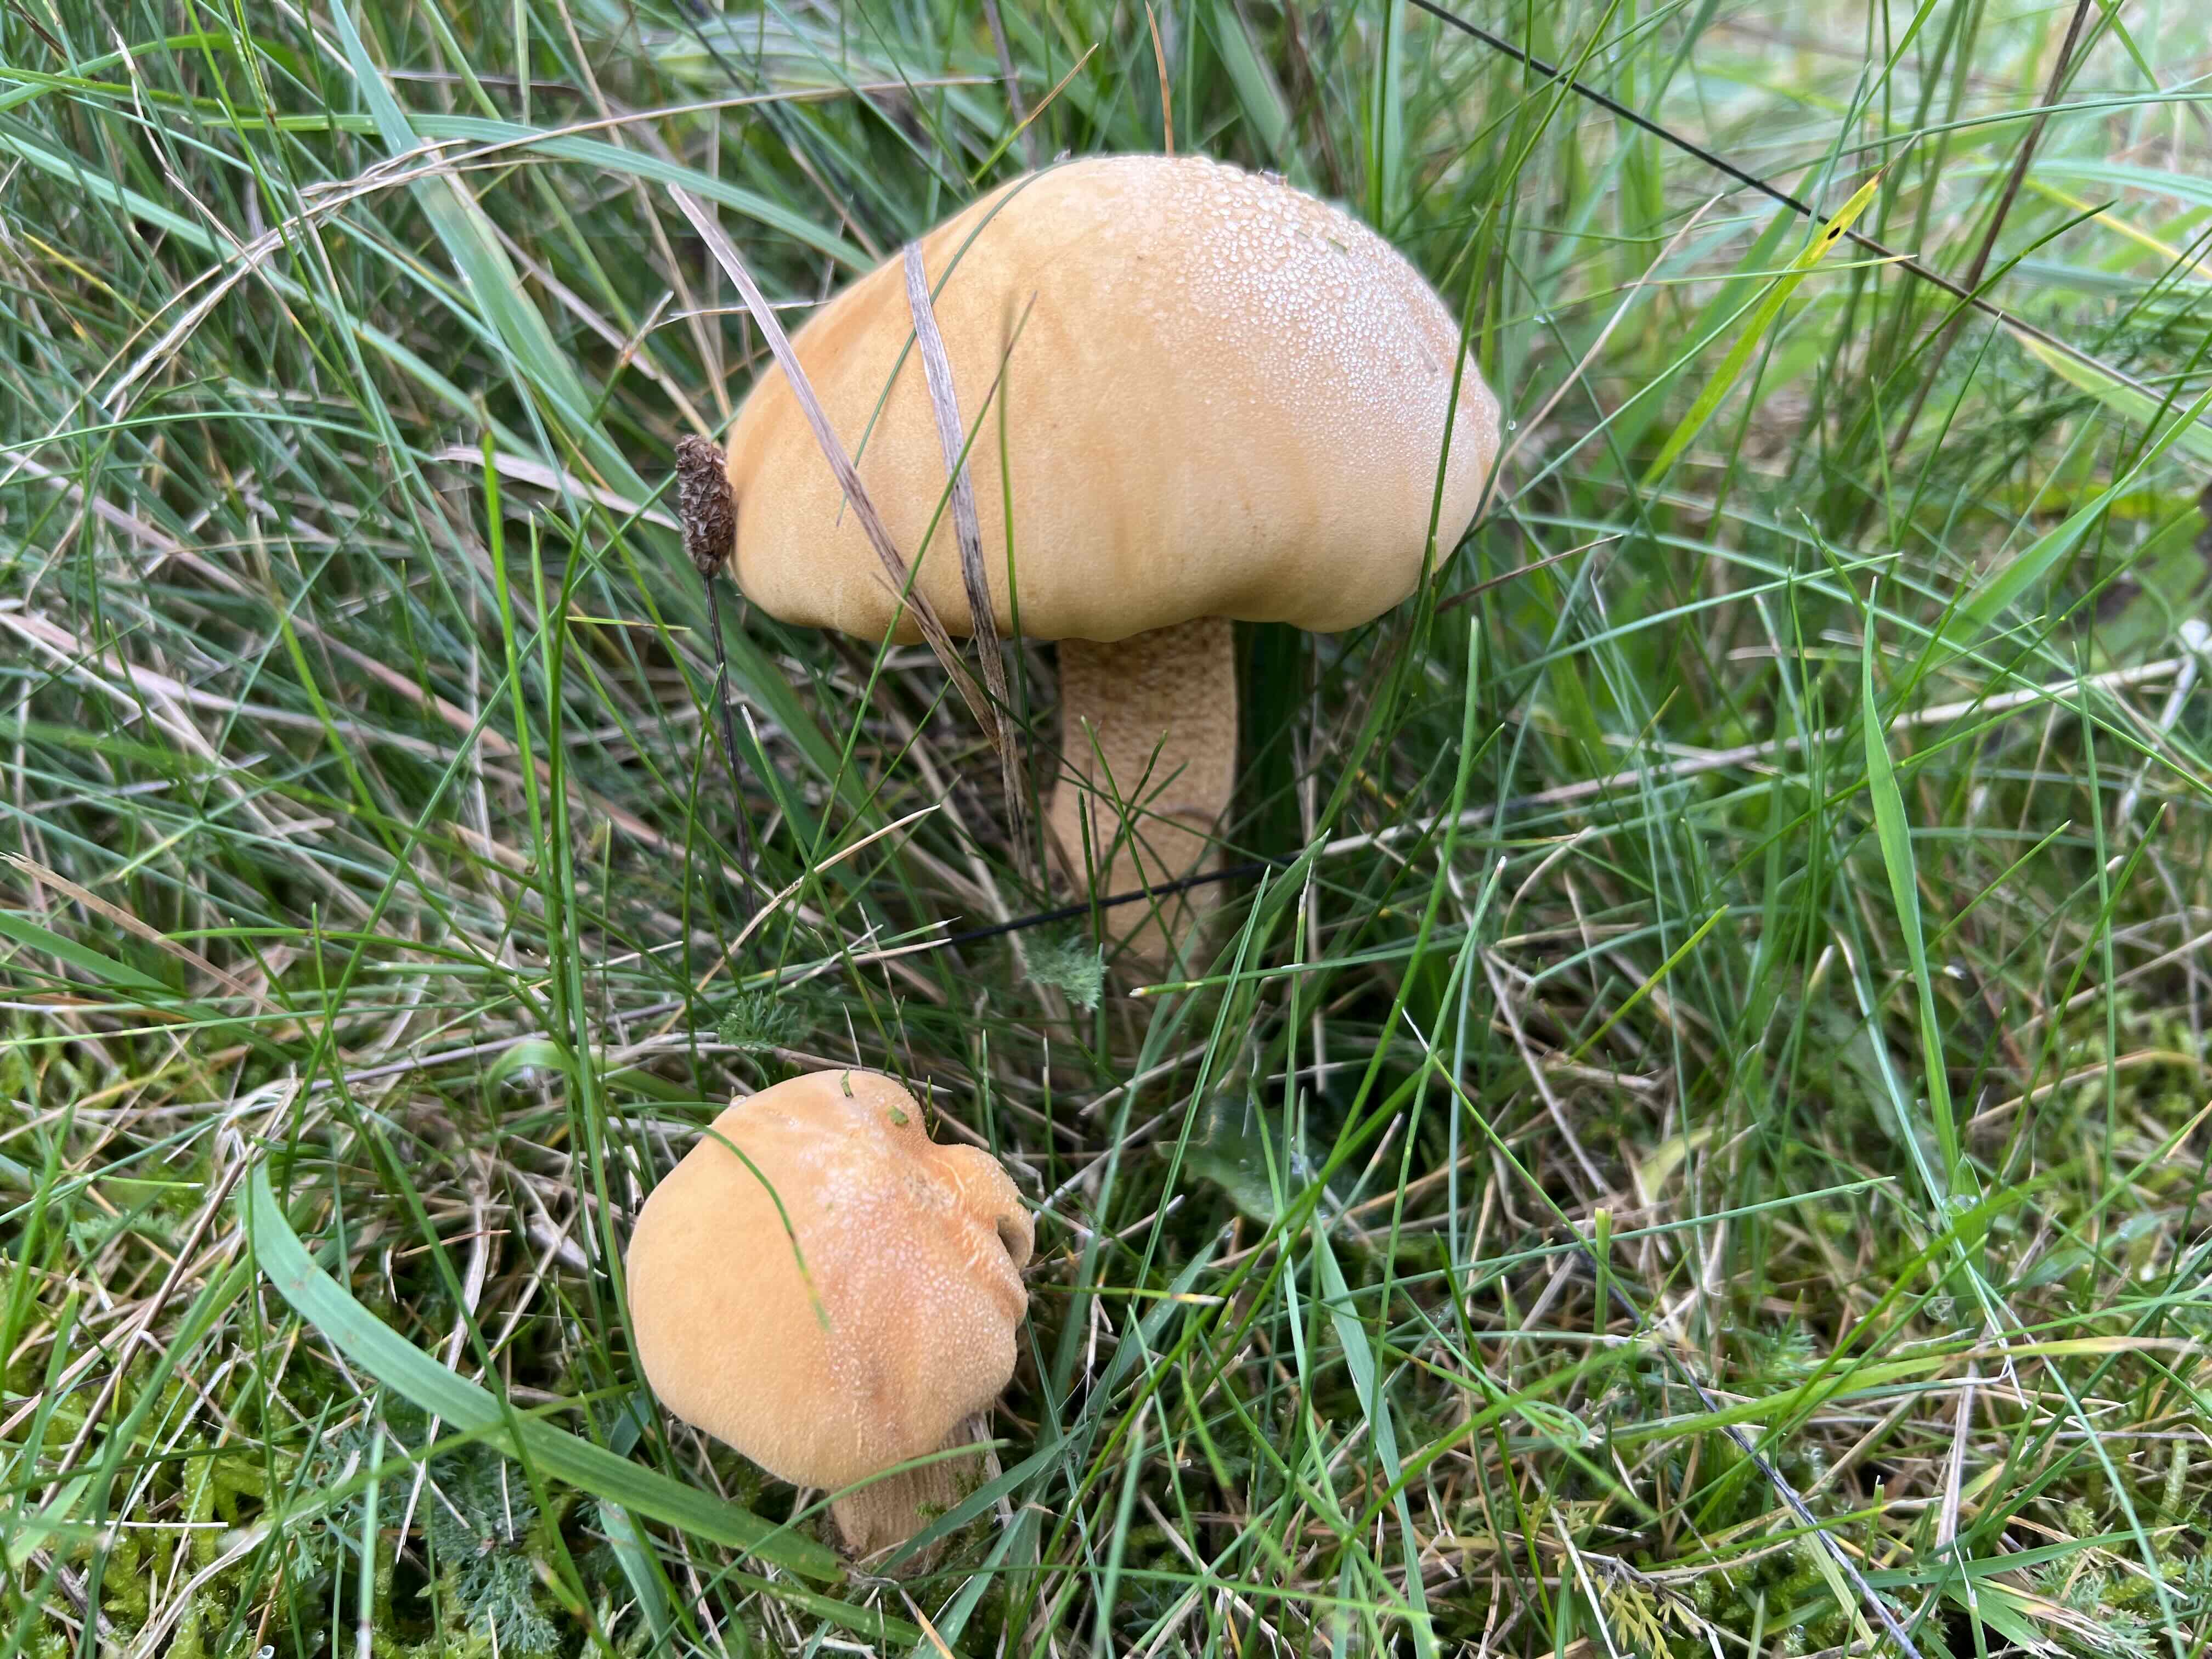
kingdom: Fungi
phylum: Basidiomycota
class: Agaricomycetes
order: Agaricales
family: Tricholomataceae
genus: Phaeolepiota
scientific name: Phaeolepiota aurea
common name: gyldenhat
